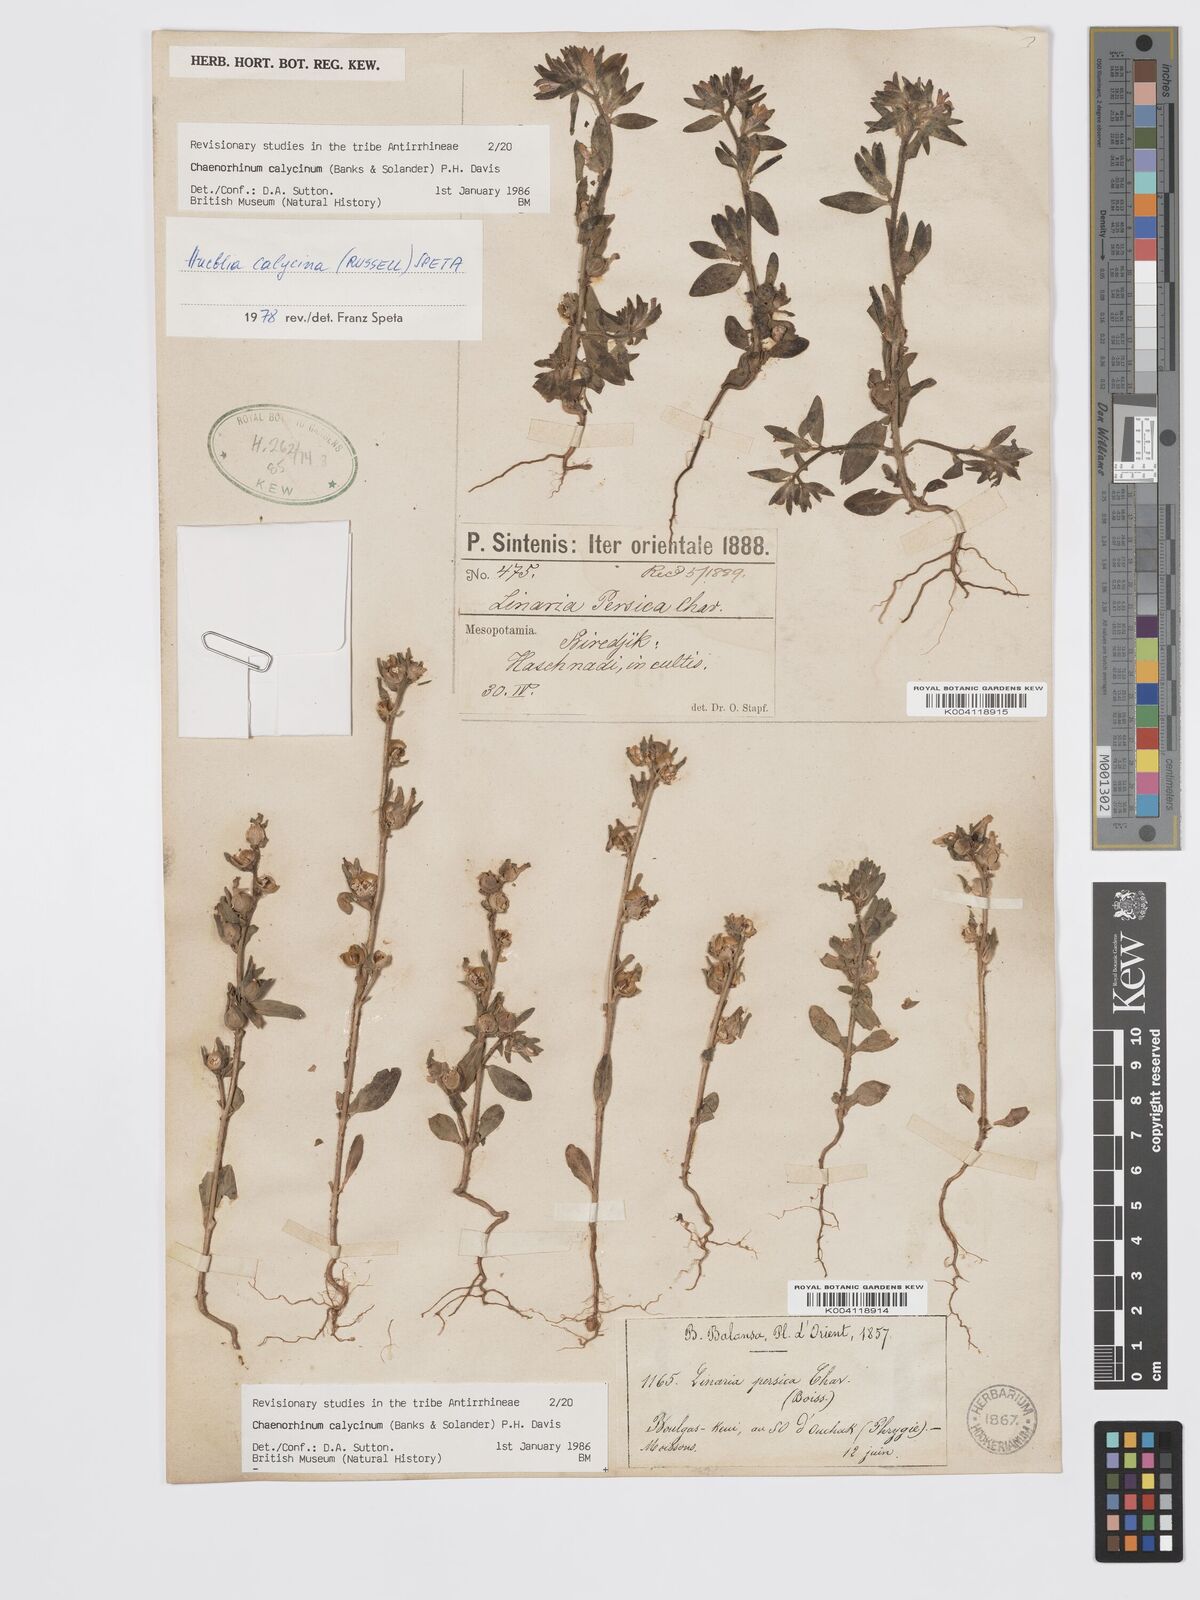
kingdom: Plantae
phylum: Tracheophyta
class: Magnoliopsida
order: Lamiales
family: Plantaginaceae
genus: Chaenorhinum
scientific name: Chaenorhinum calycinum
